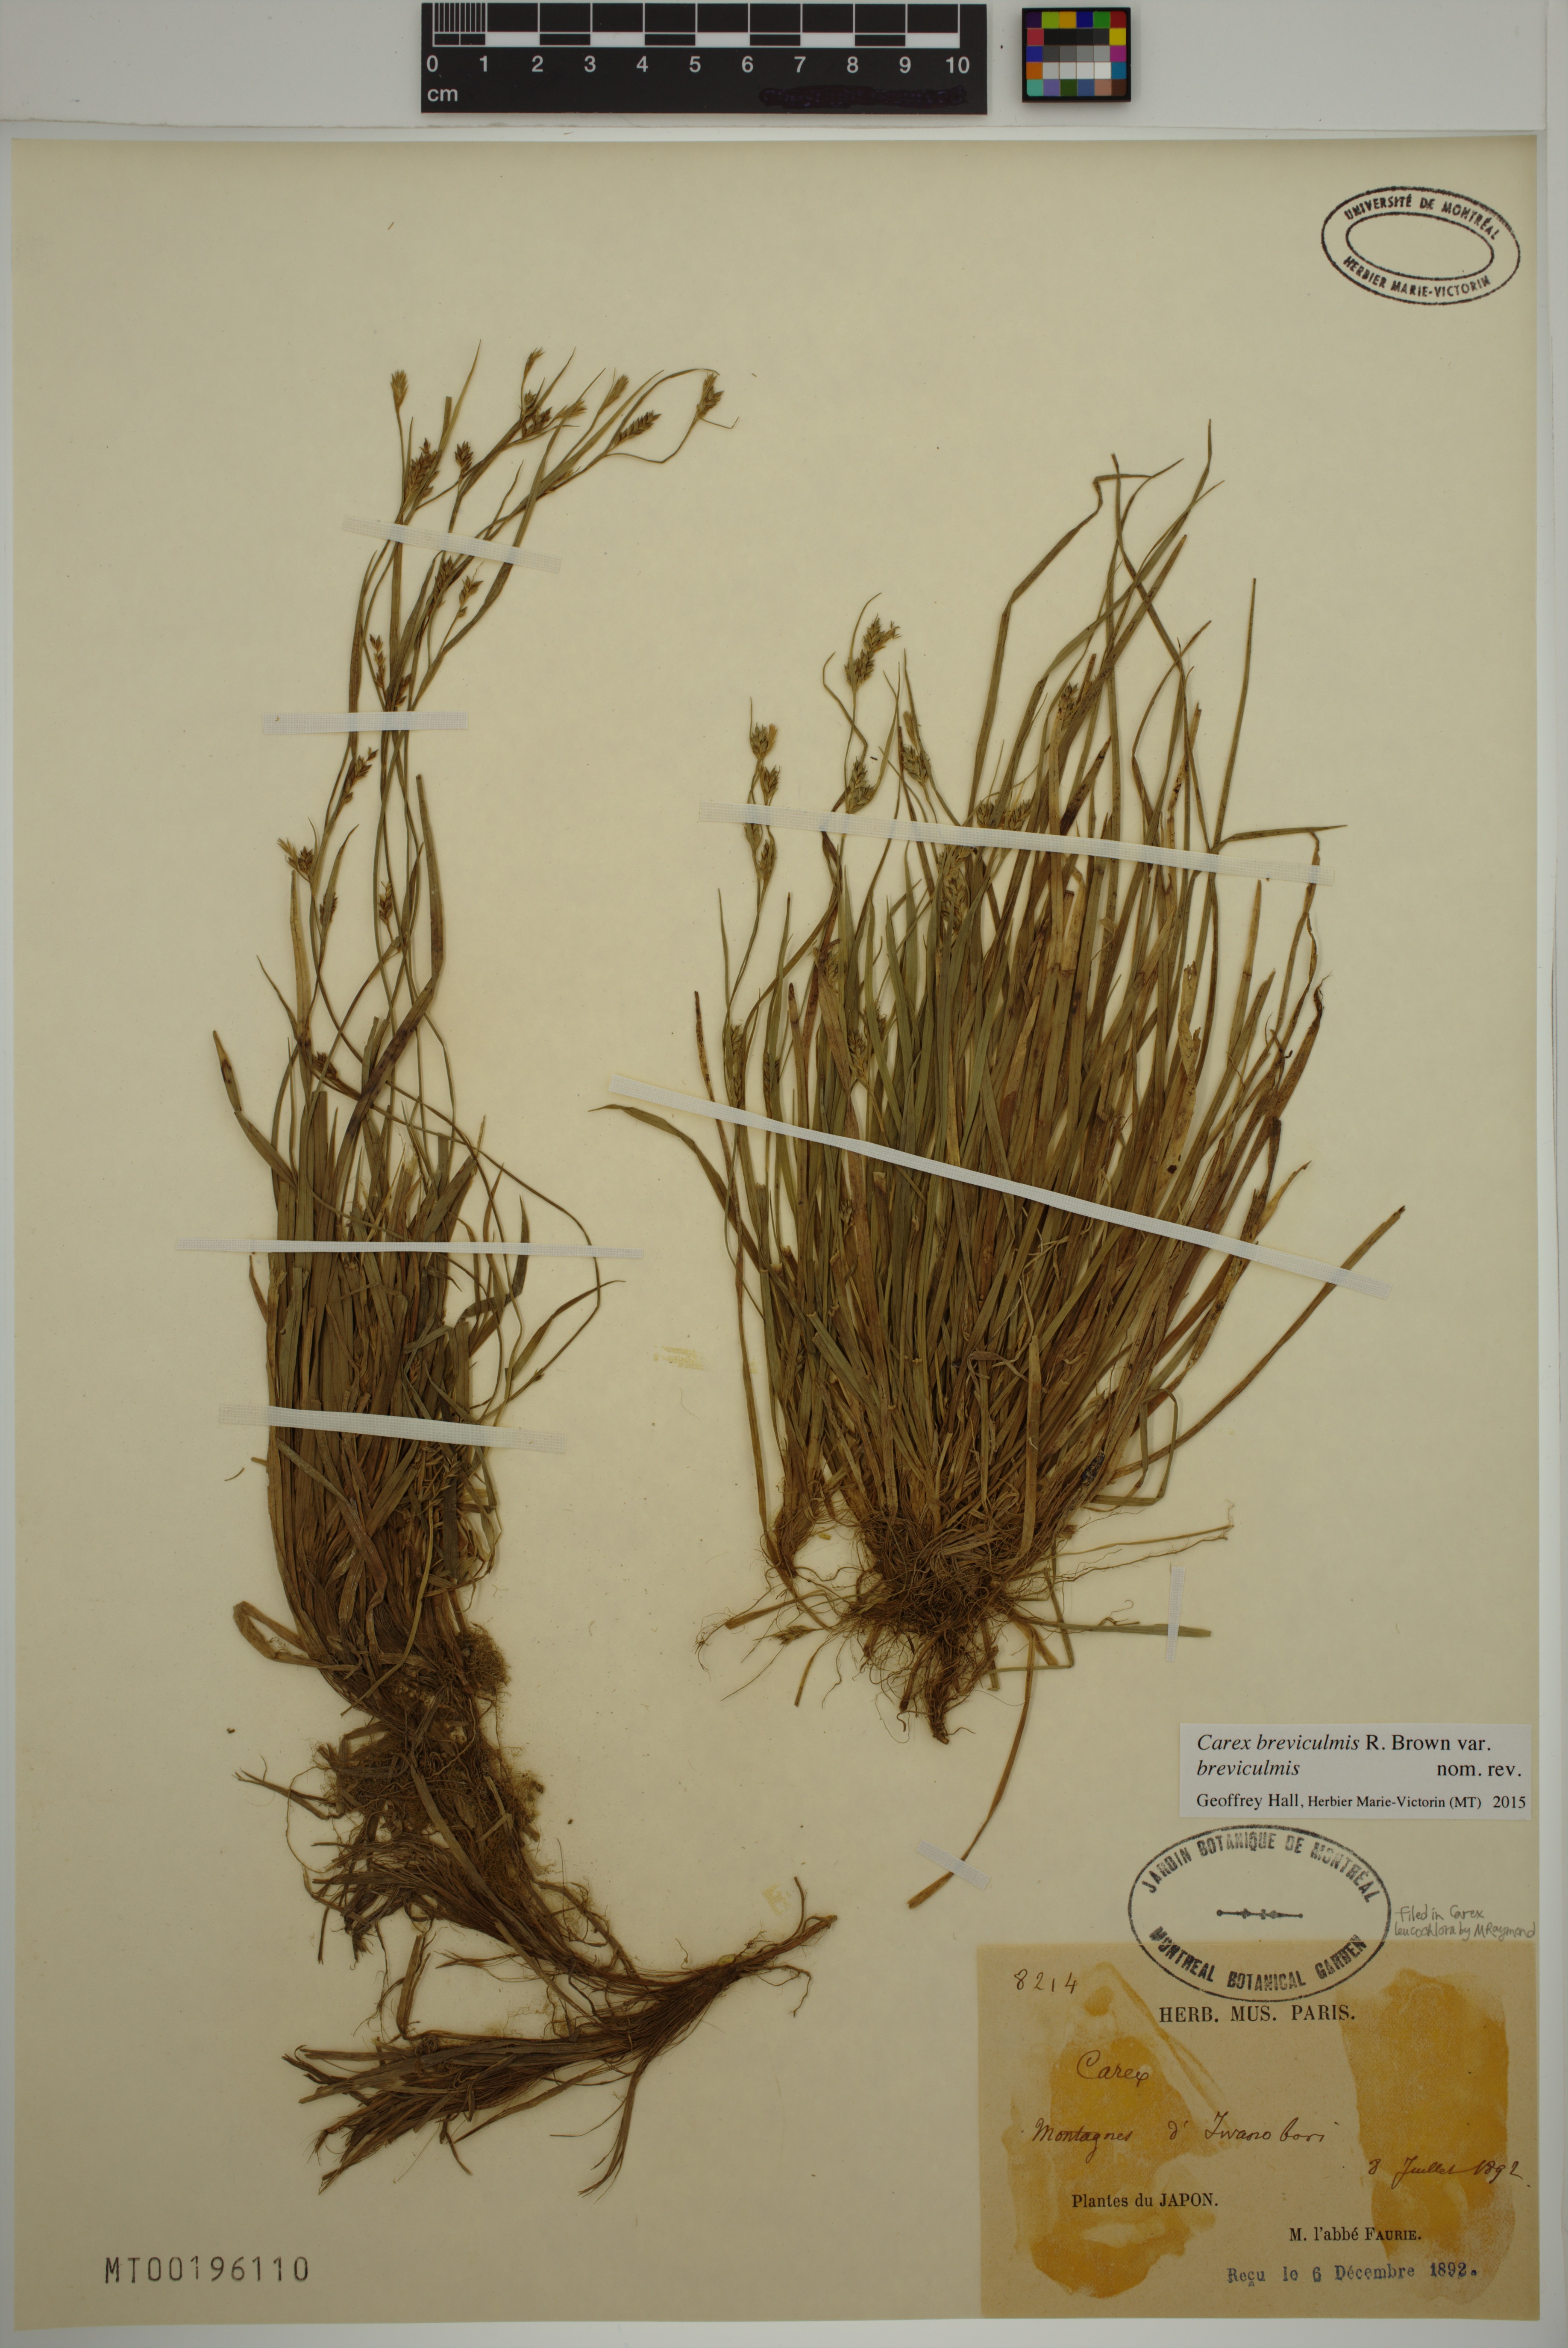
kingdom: Plantae
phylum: Tracheophyta
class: Liliopsida
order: Poales
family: Cyperaceae
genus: Carex
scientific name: Carex breviculmis
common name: Asian shortstem sedge
